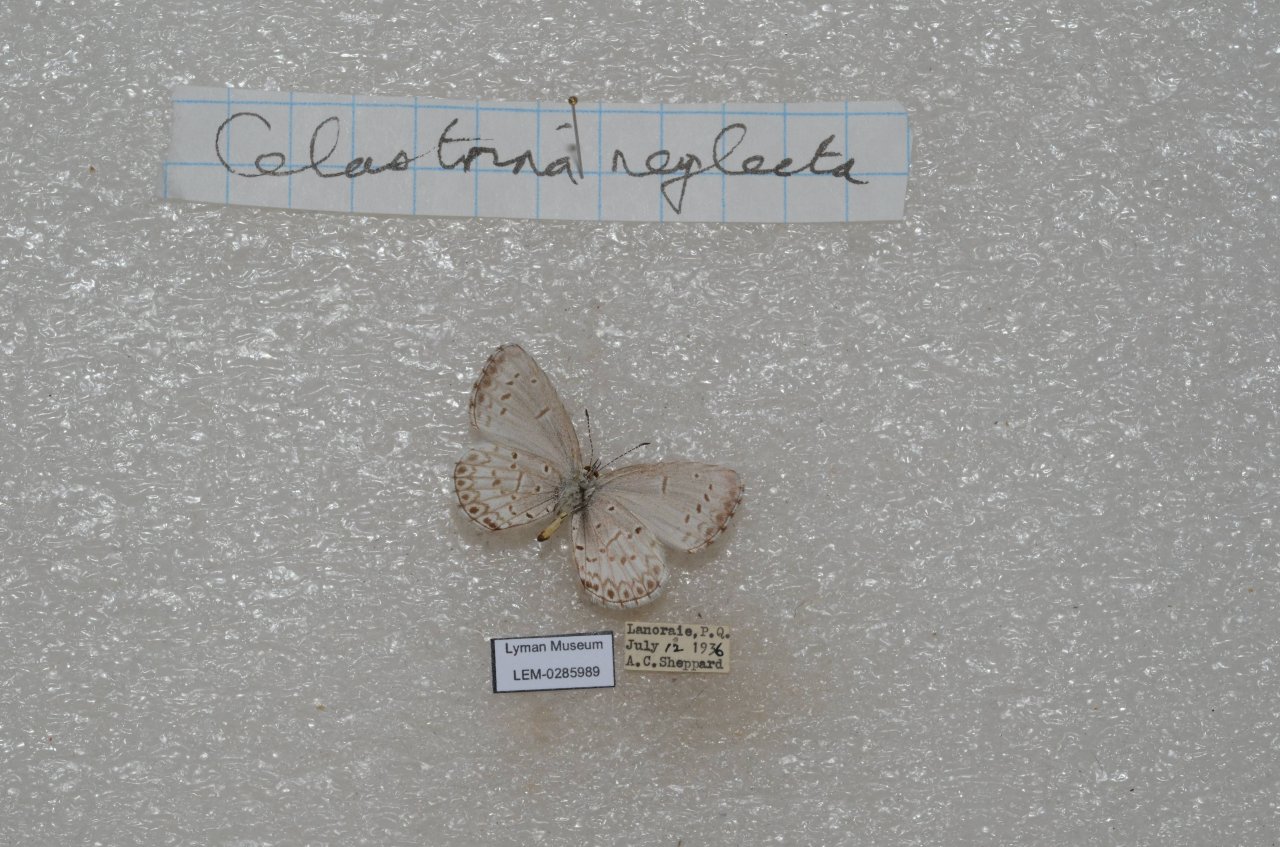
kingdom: Animalia
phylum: Arthropoda
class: Insecta
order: Lepidoptera
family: Lycaenidae
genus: Celastrina
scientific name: Celastrina lucia
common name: Northern Spring Azure
